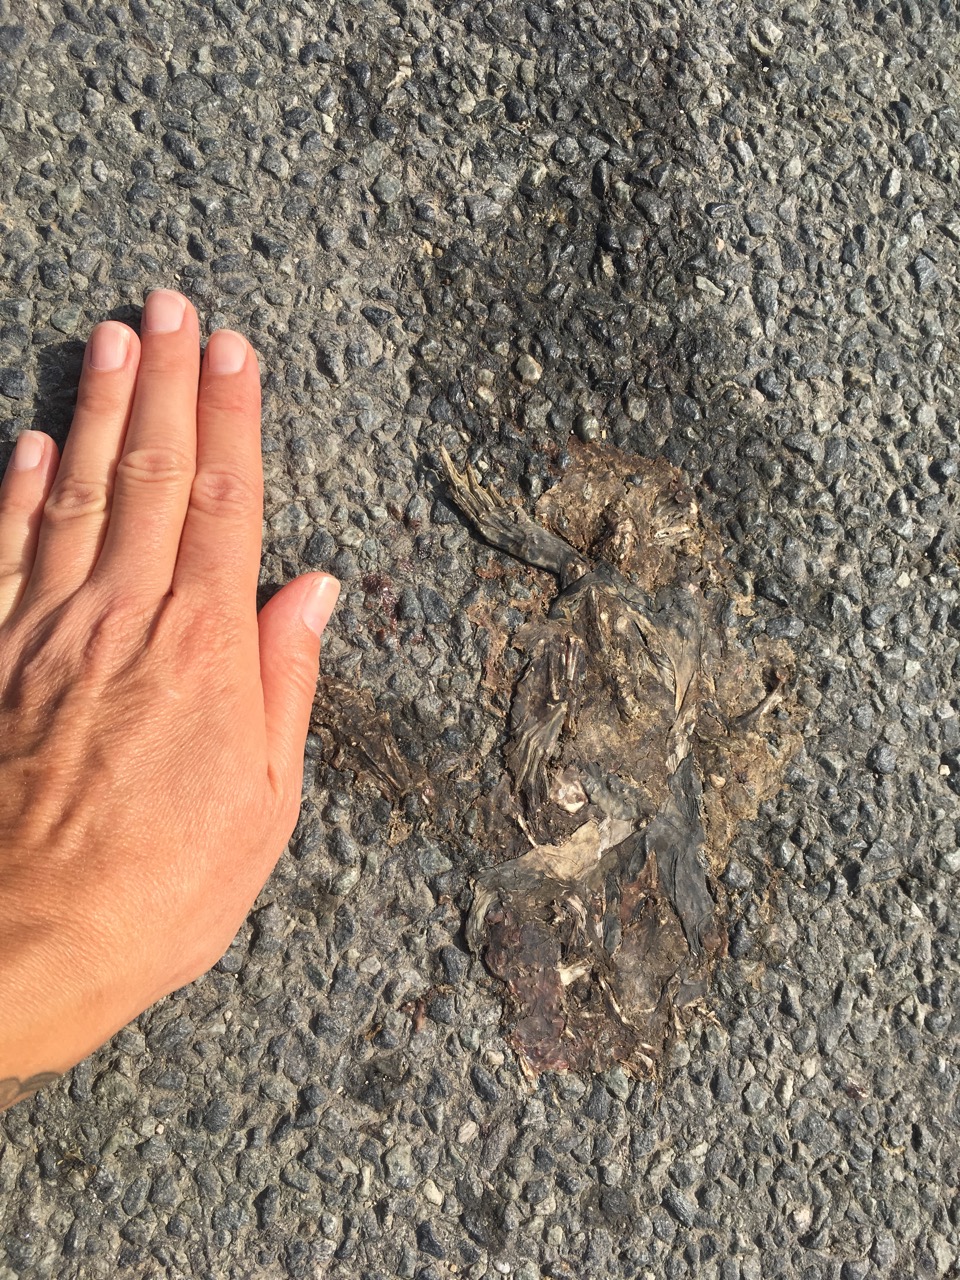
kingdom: Animalia
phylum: Chordata
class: Amphibia
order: Anura
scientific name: Anura
